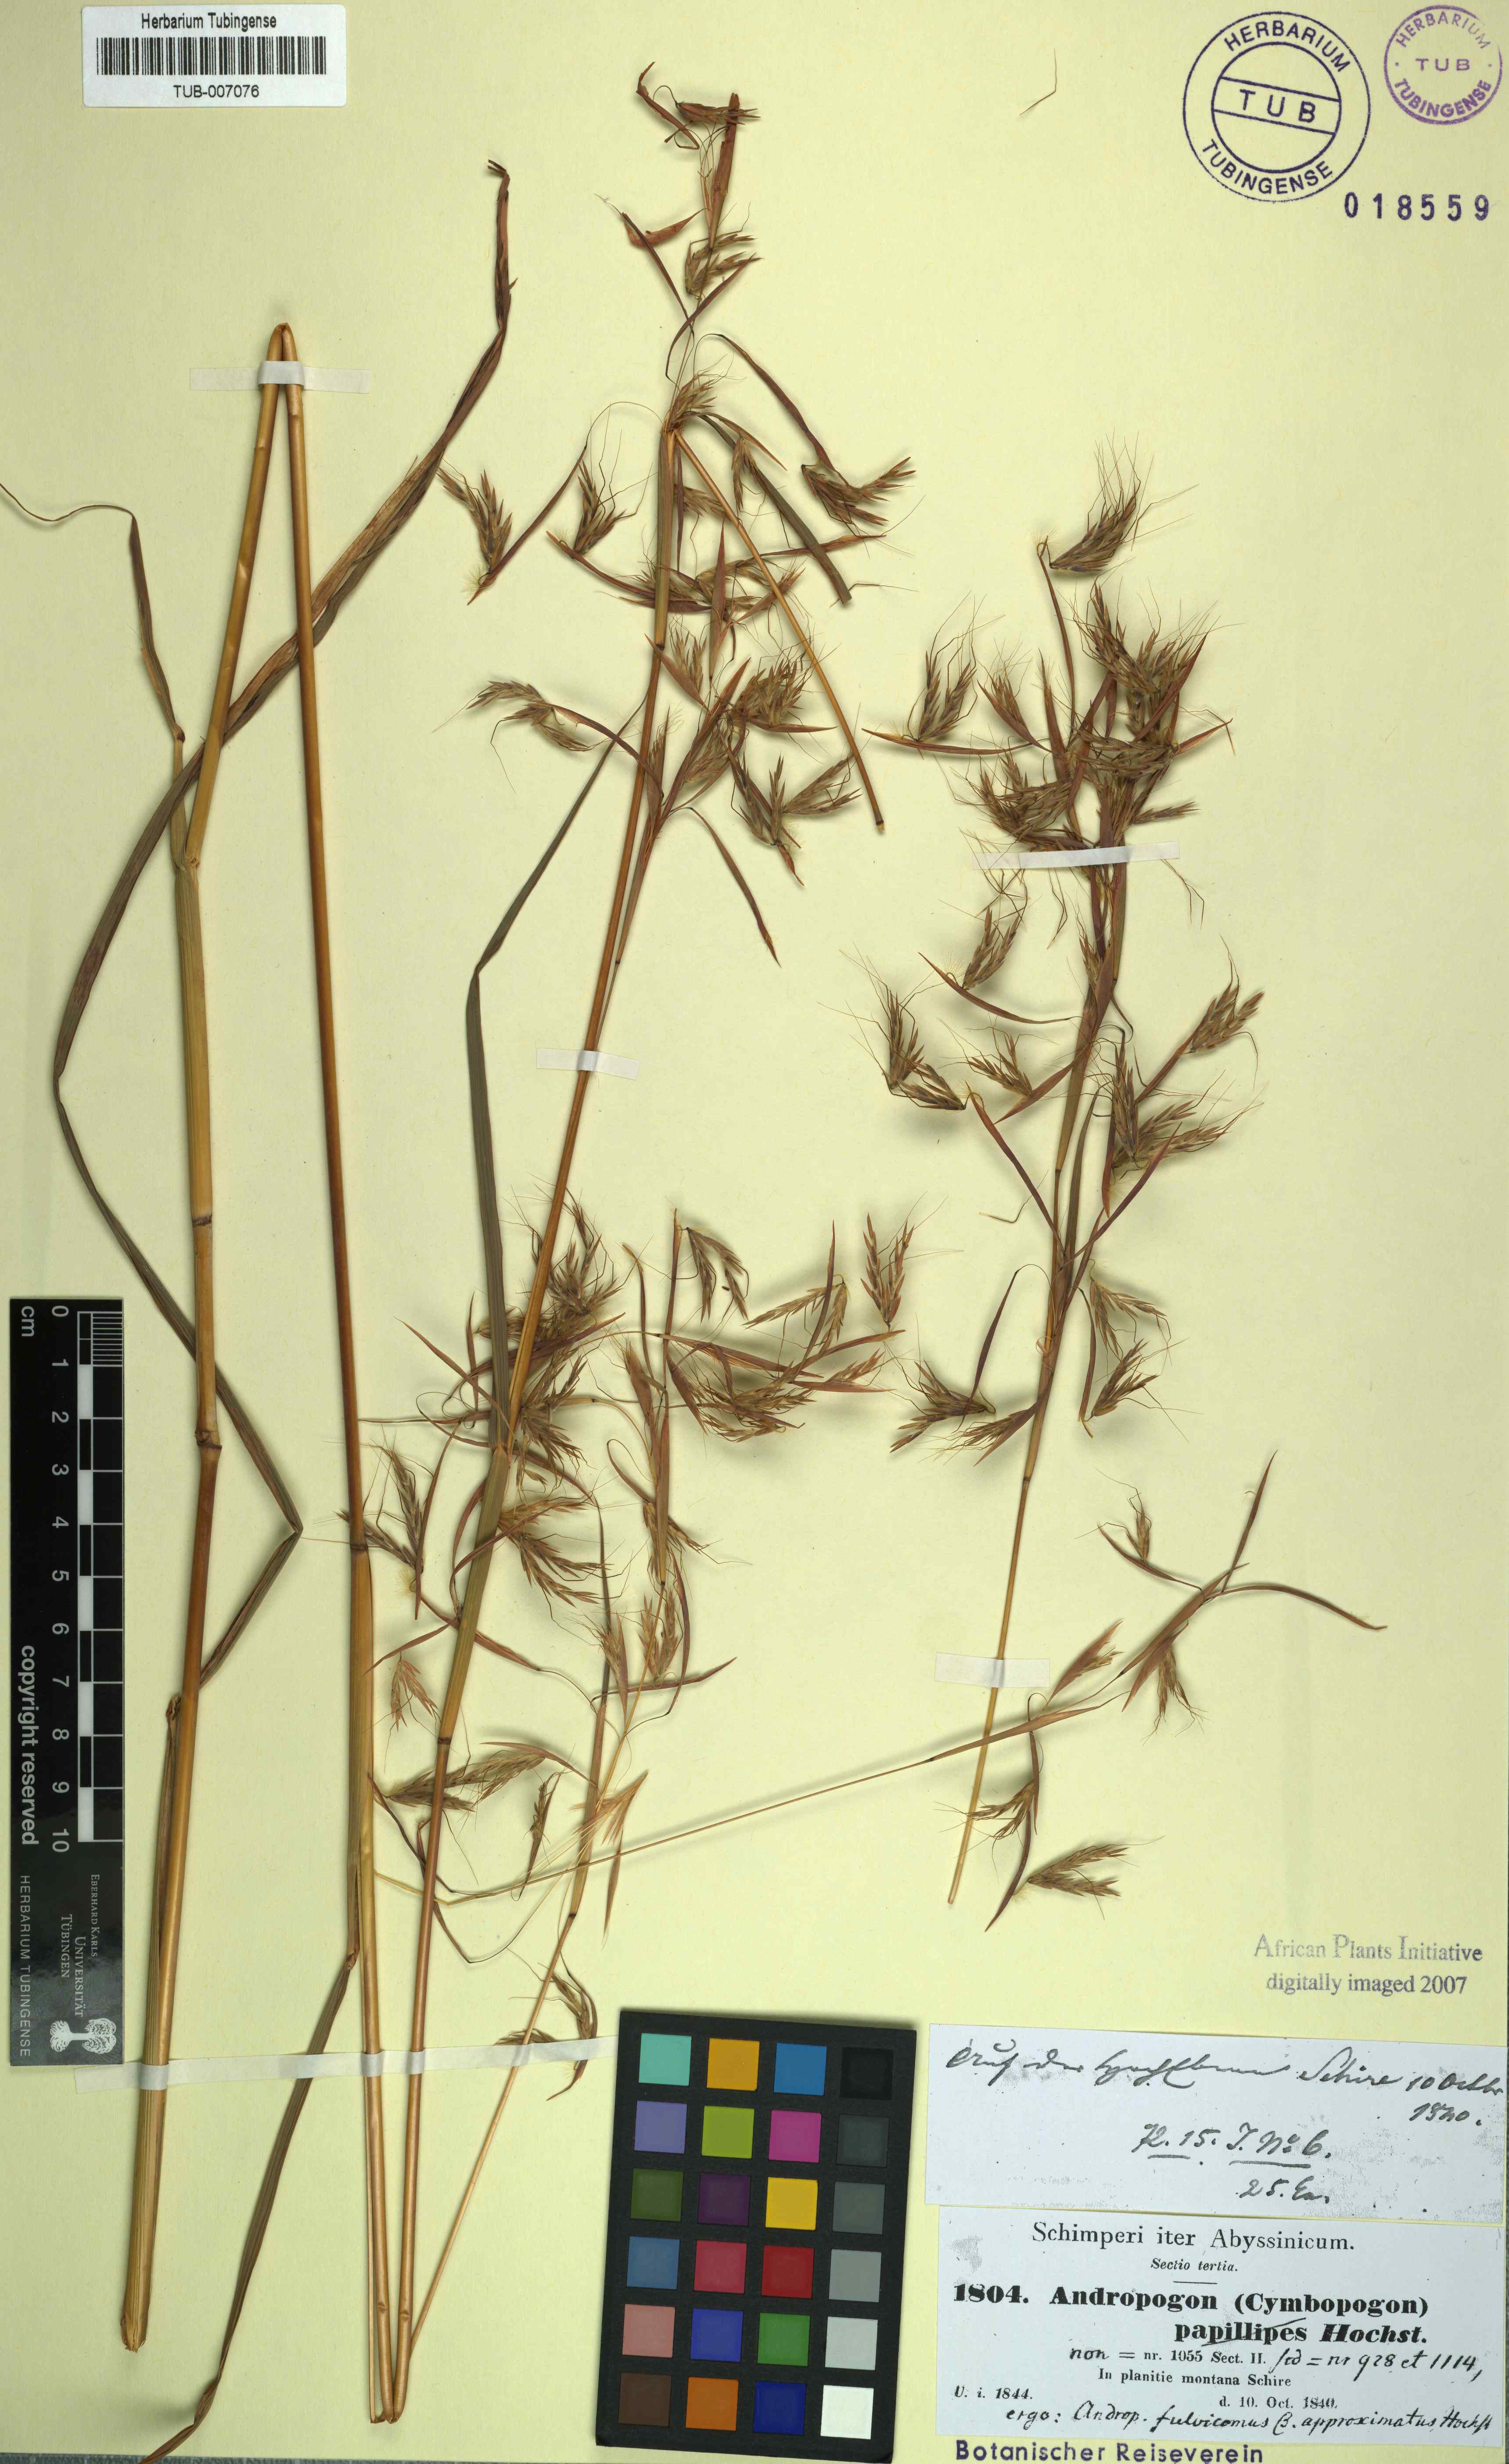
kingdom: Plantae
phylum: Tracheophyta
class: Liliopsida
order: Poales
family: Poaceae
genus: Hyparrhenia
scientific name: Hyparrhenia rufa
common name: Jaraguagrass
